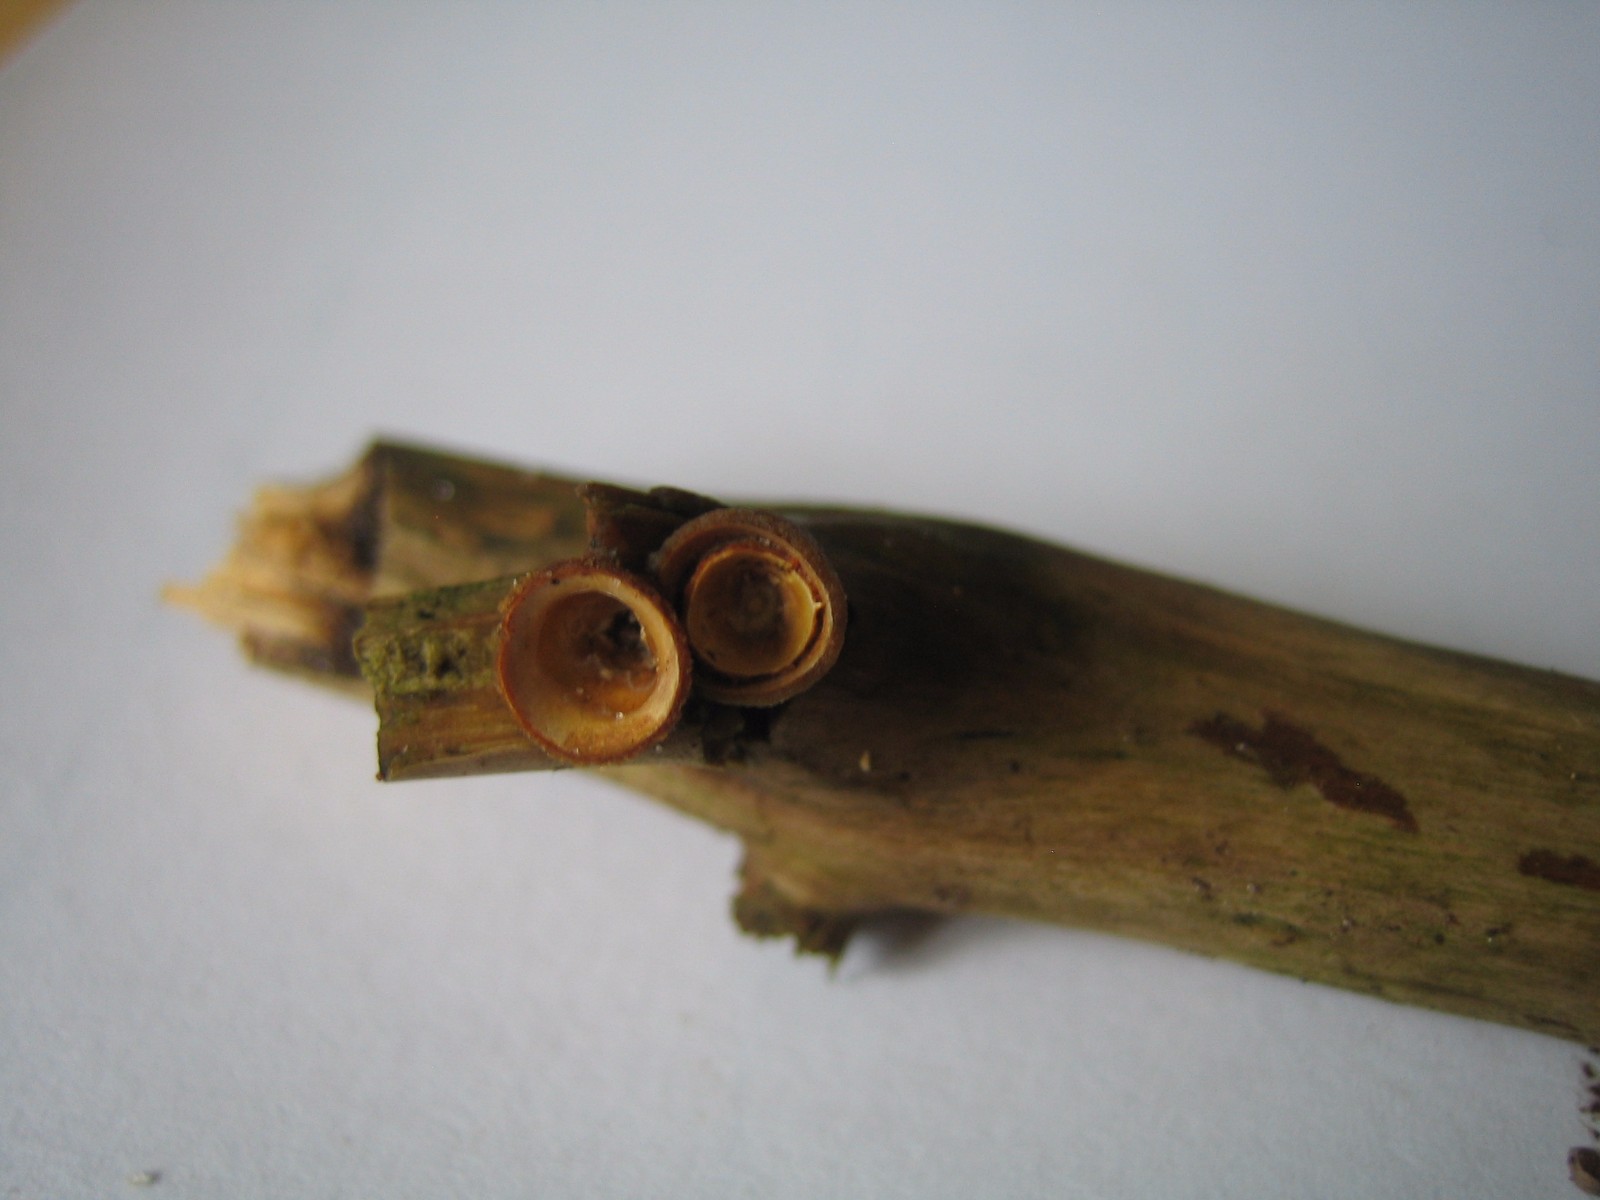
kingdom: Fungi
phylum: Basidiomycota
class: Agaricomycetes
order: Agaricales
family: Nidulariaceae
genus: Crucibulum
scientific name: Crucibulum crucibuliforme
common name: krukkesvamp
